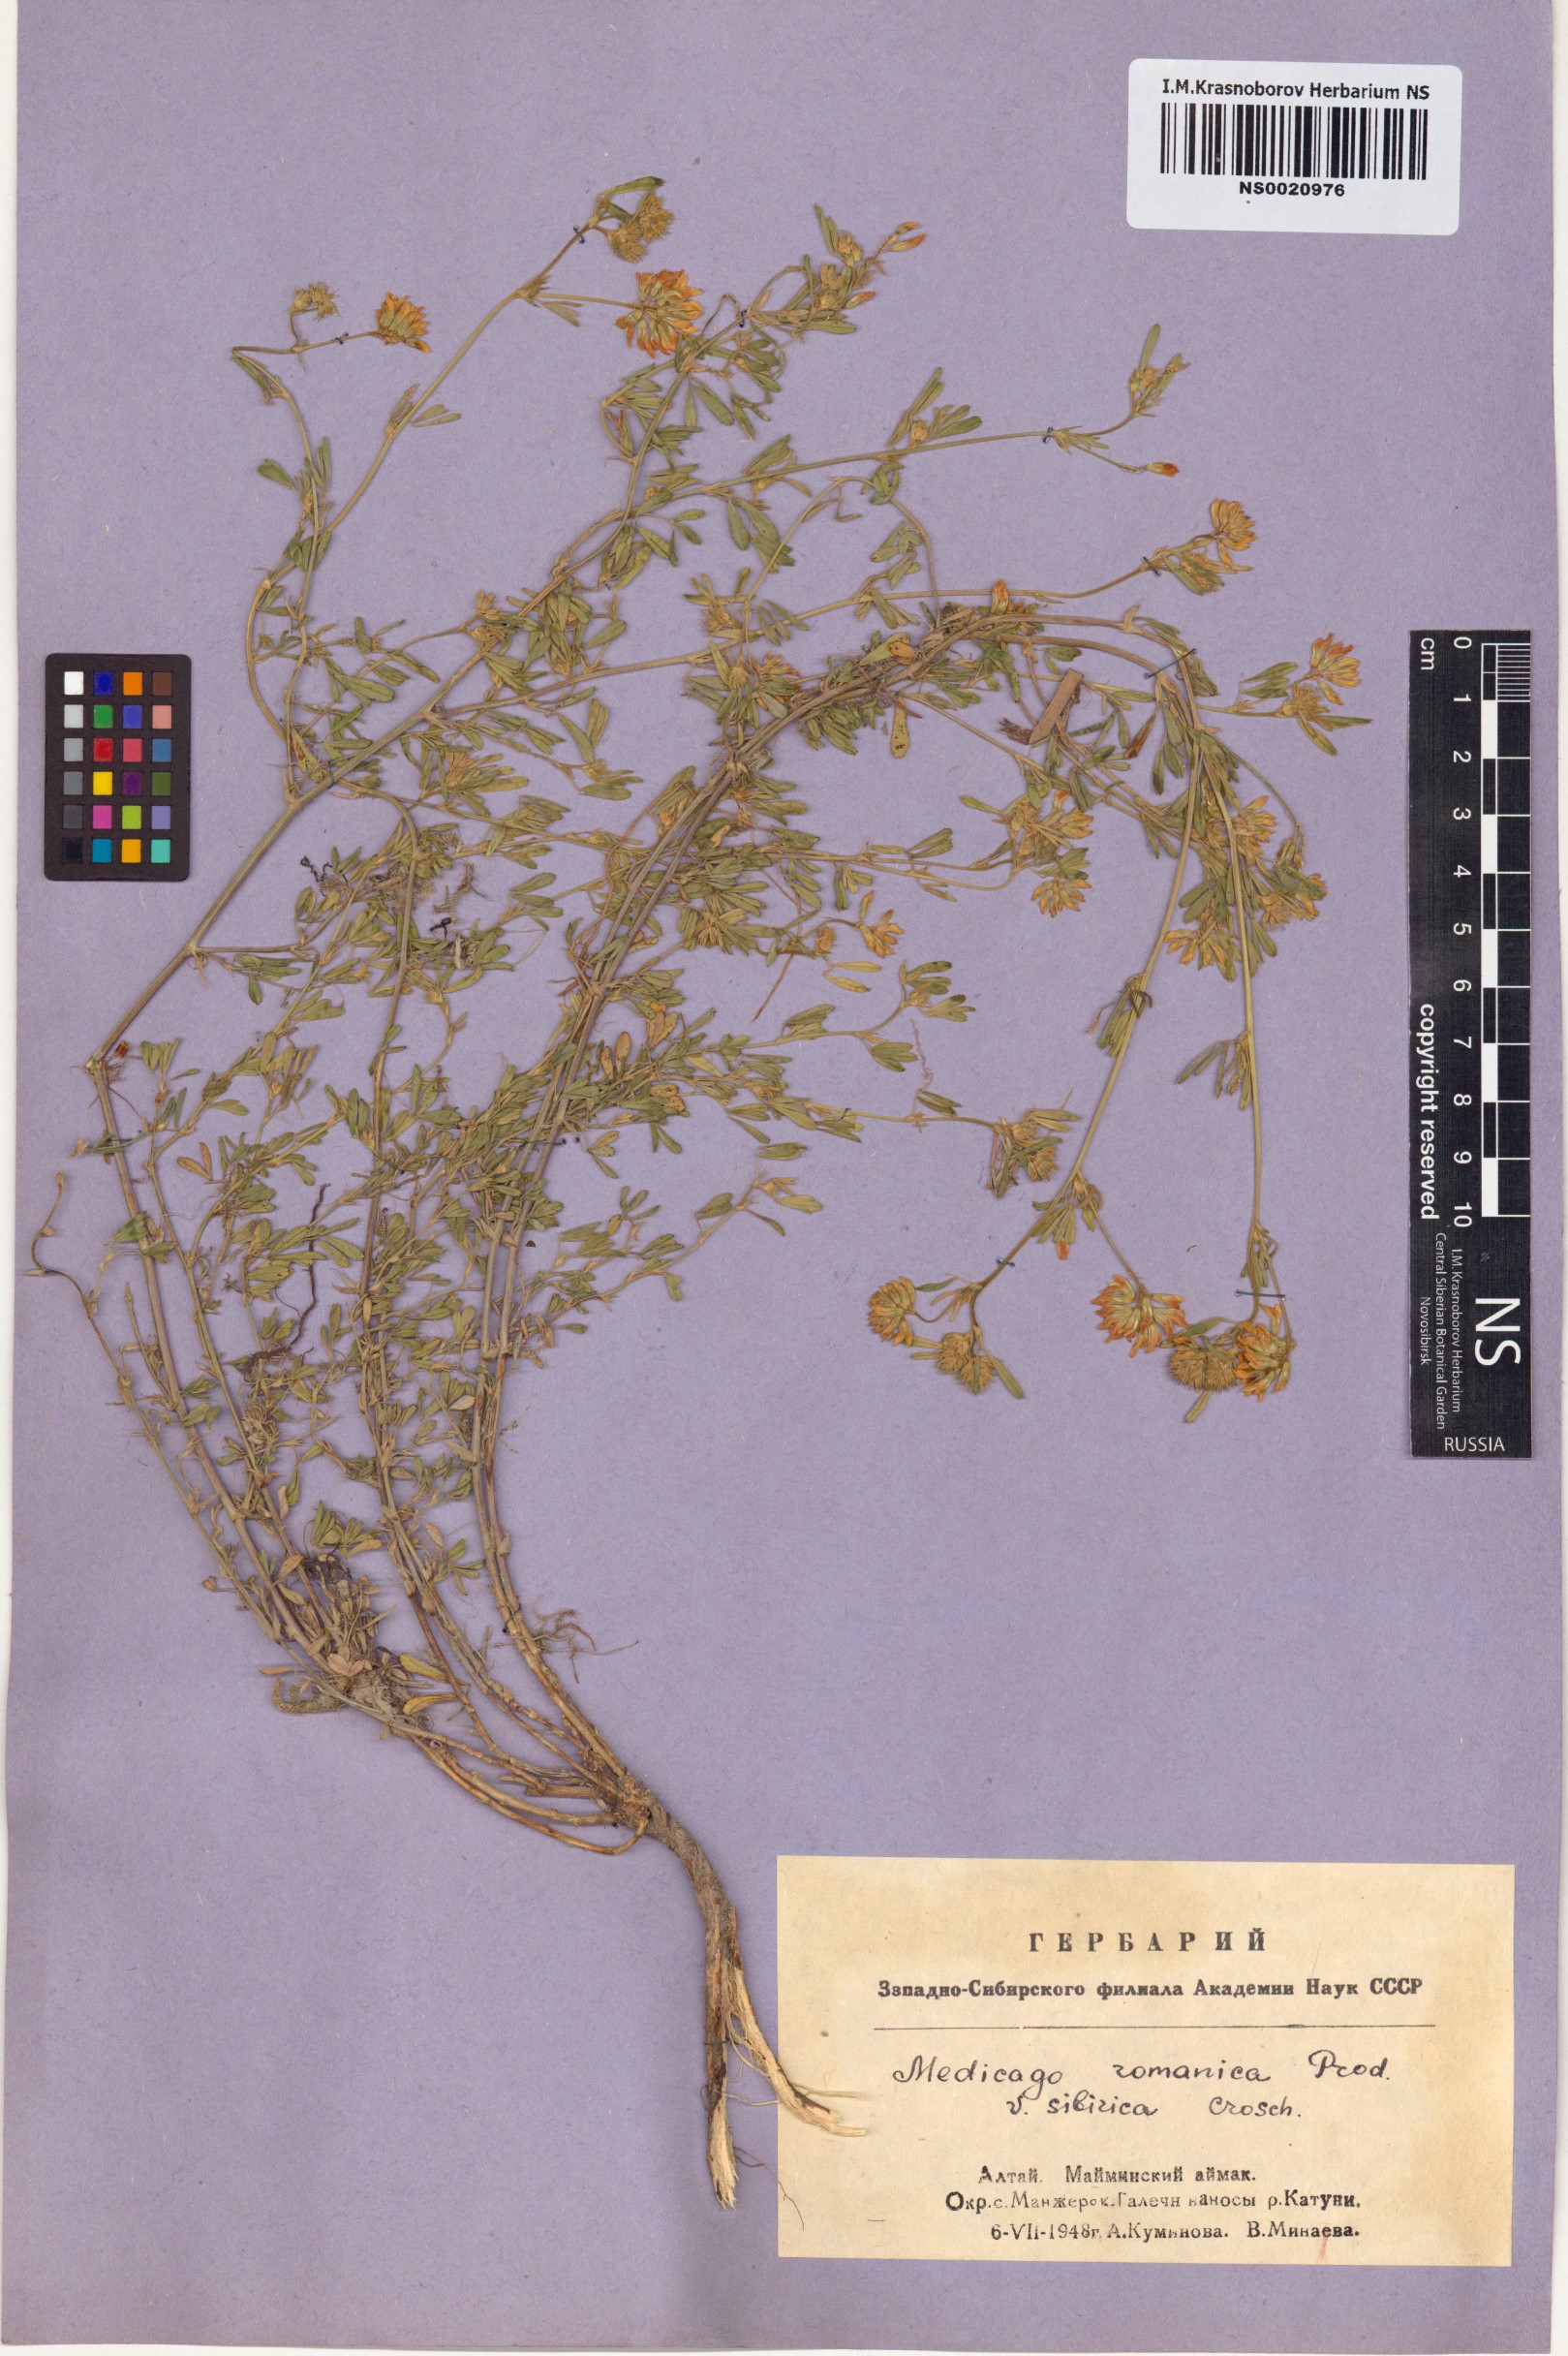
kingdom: Plantae
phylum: Tracheophyta
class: Magnoliopsida
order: Fabales
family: Fabaceae
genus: Medicago
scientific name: Medicago falcata
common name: Sickle medick
